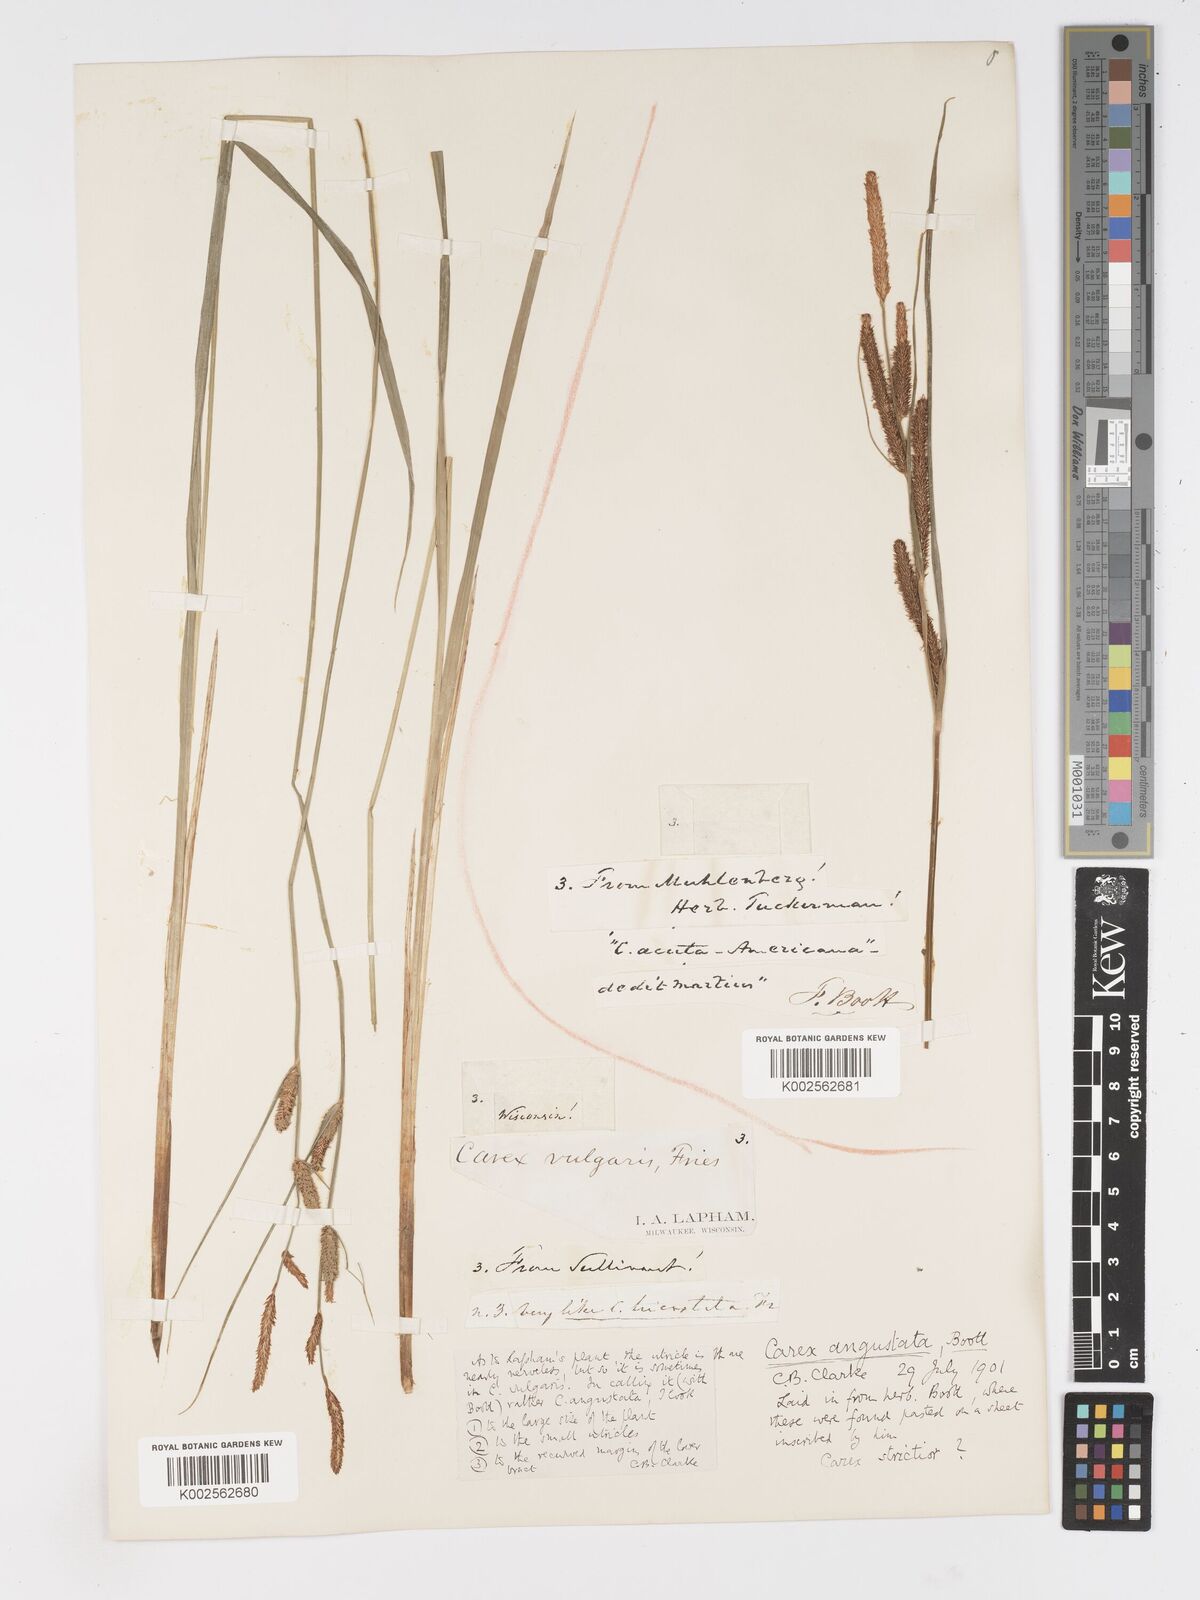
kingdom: Plantae
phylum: Tracheophyta
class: Liliopsida
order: Poales
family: Cyperaceae
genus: Carex
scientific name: Carex stricta
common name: Hummock sedge
